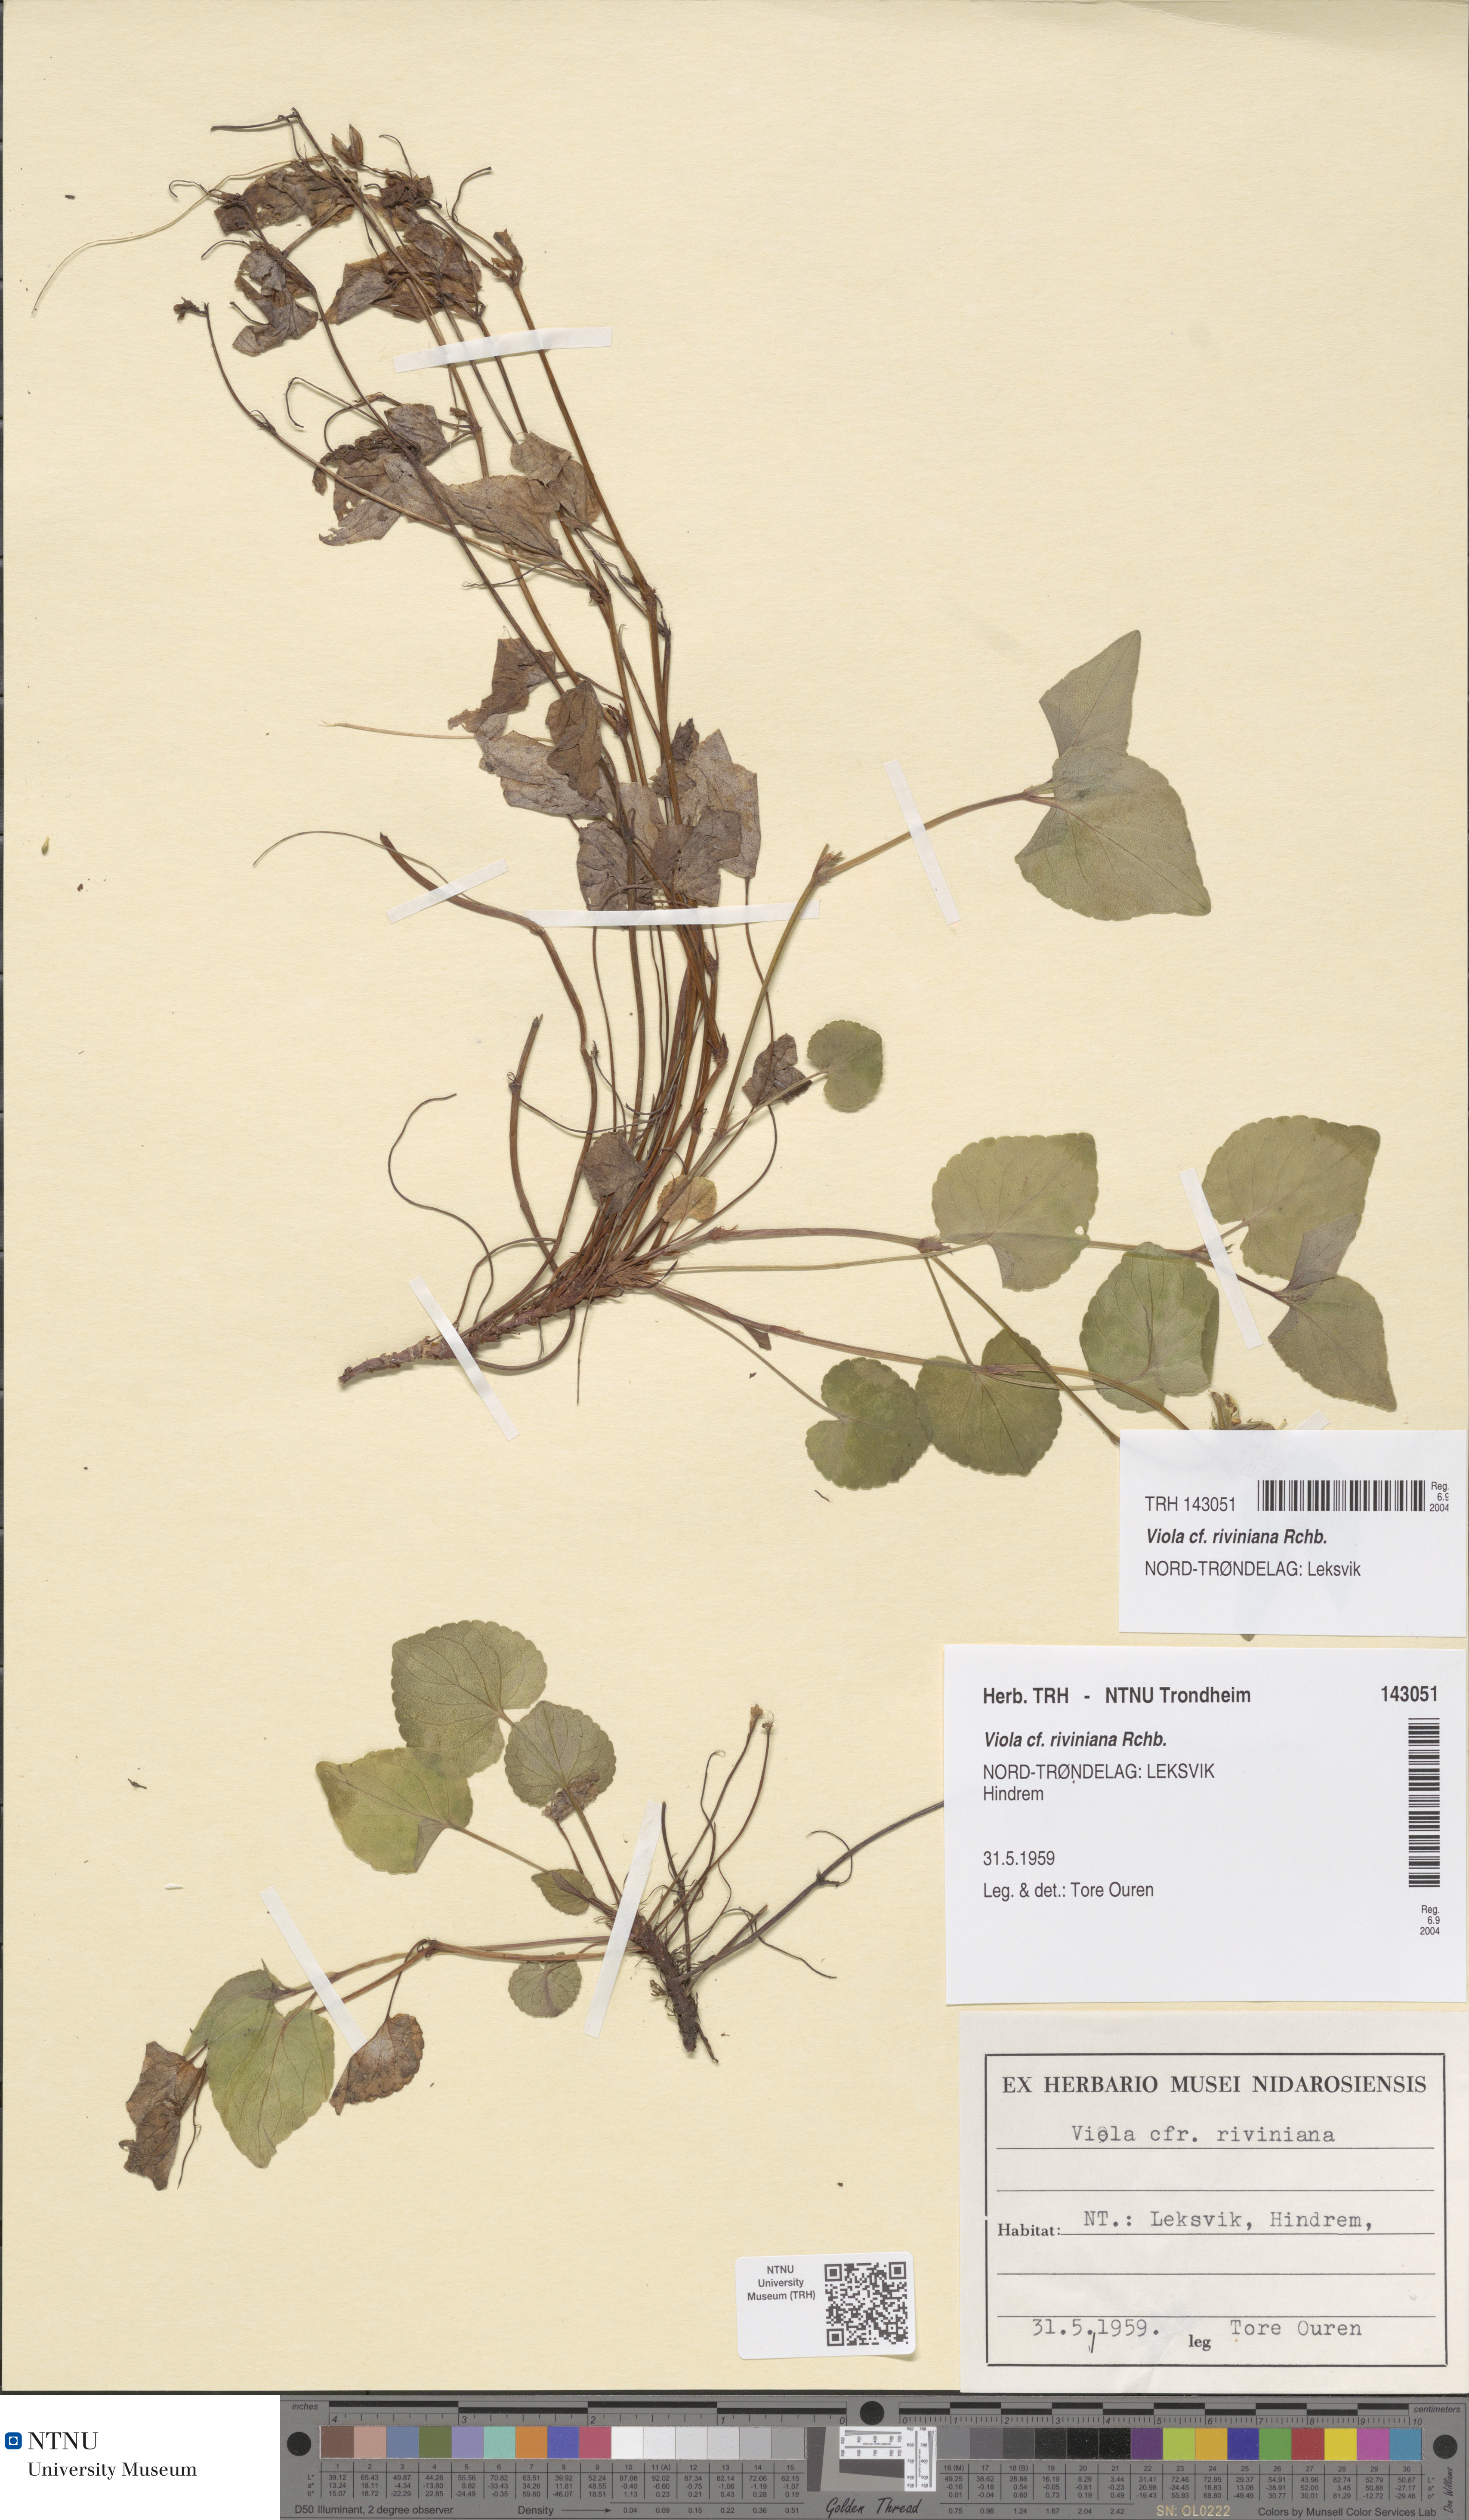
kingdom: Plantae
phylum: Tracheophyta
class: Magnoliopsida
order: Malpighiales
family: Violaceae
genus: Viola
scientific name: Viola riviniana
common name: Common dog-violet
